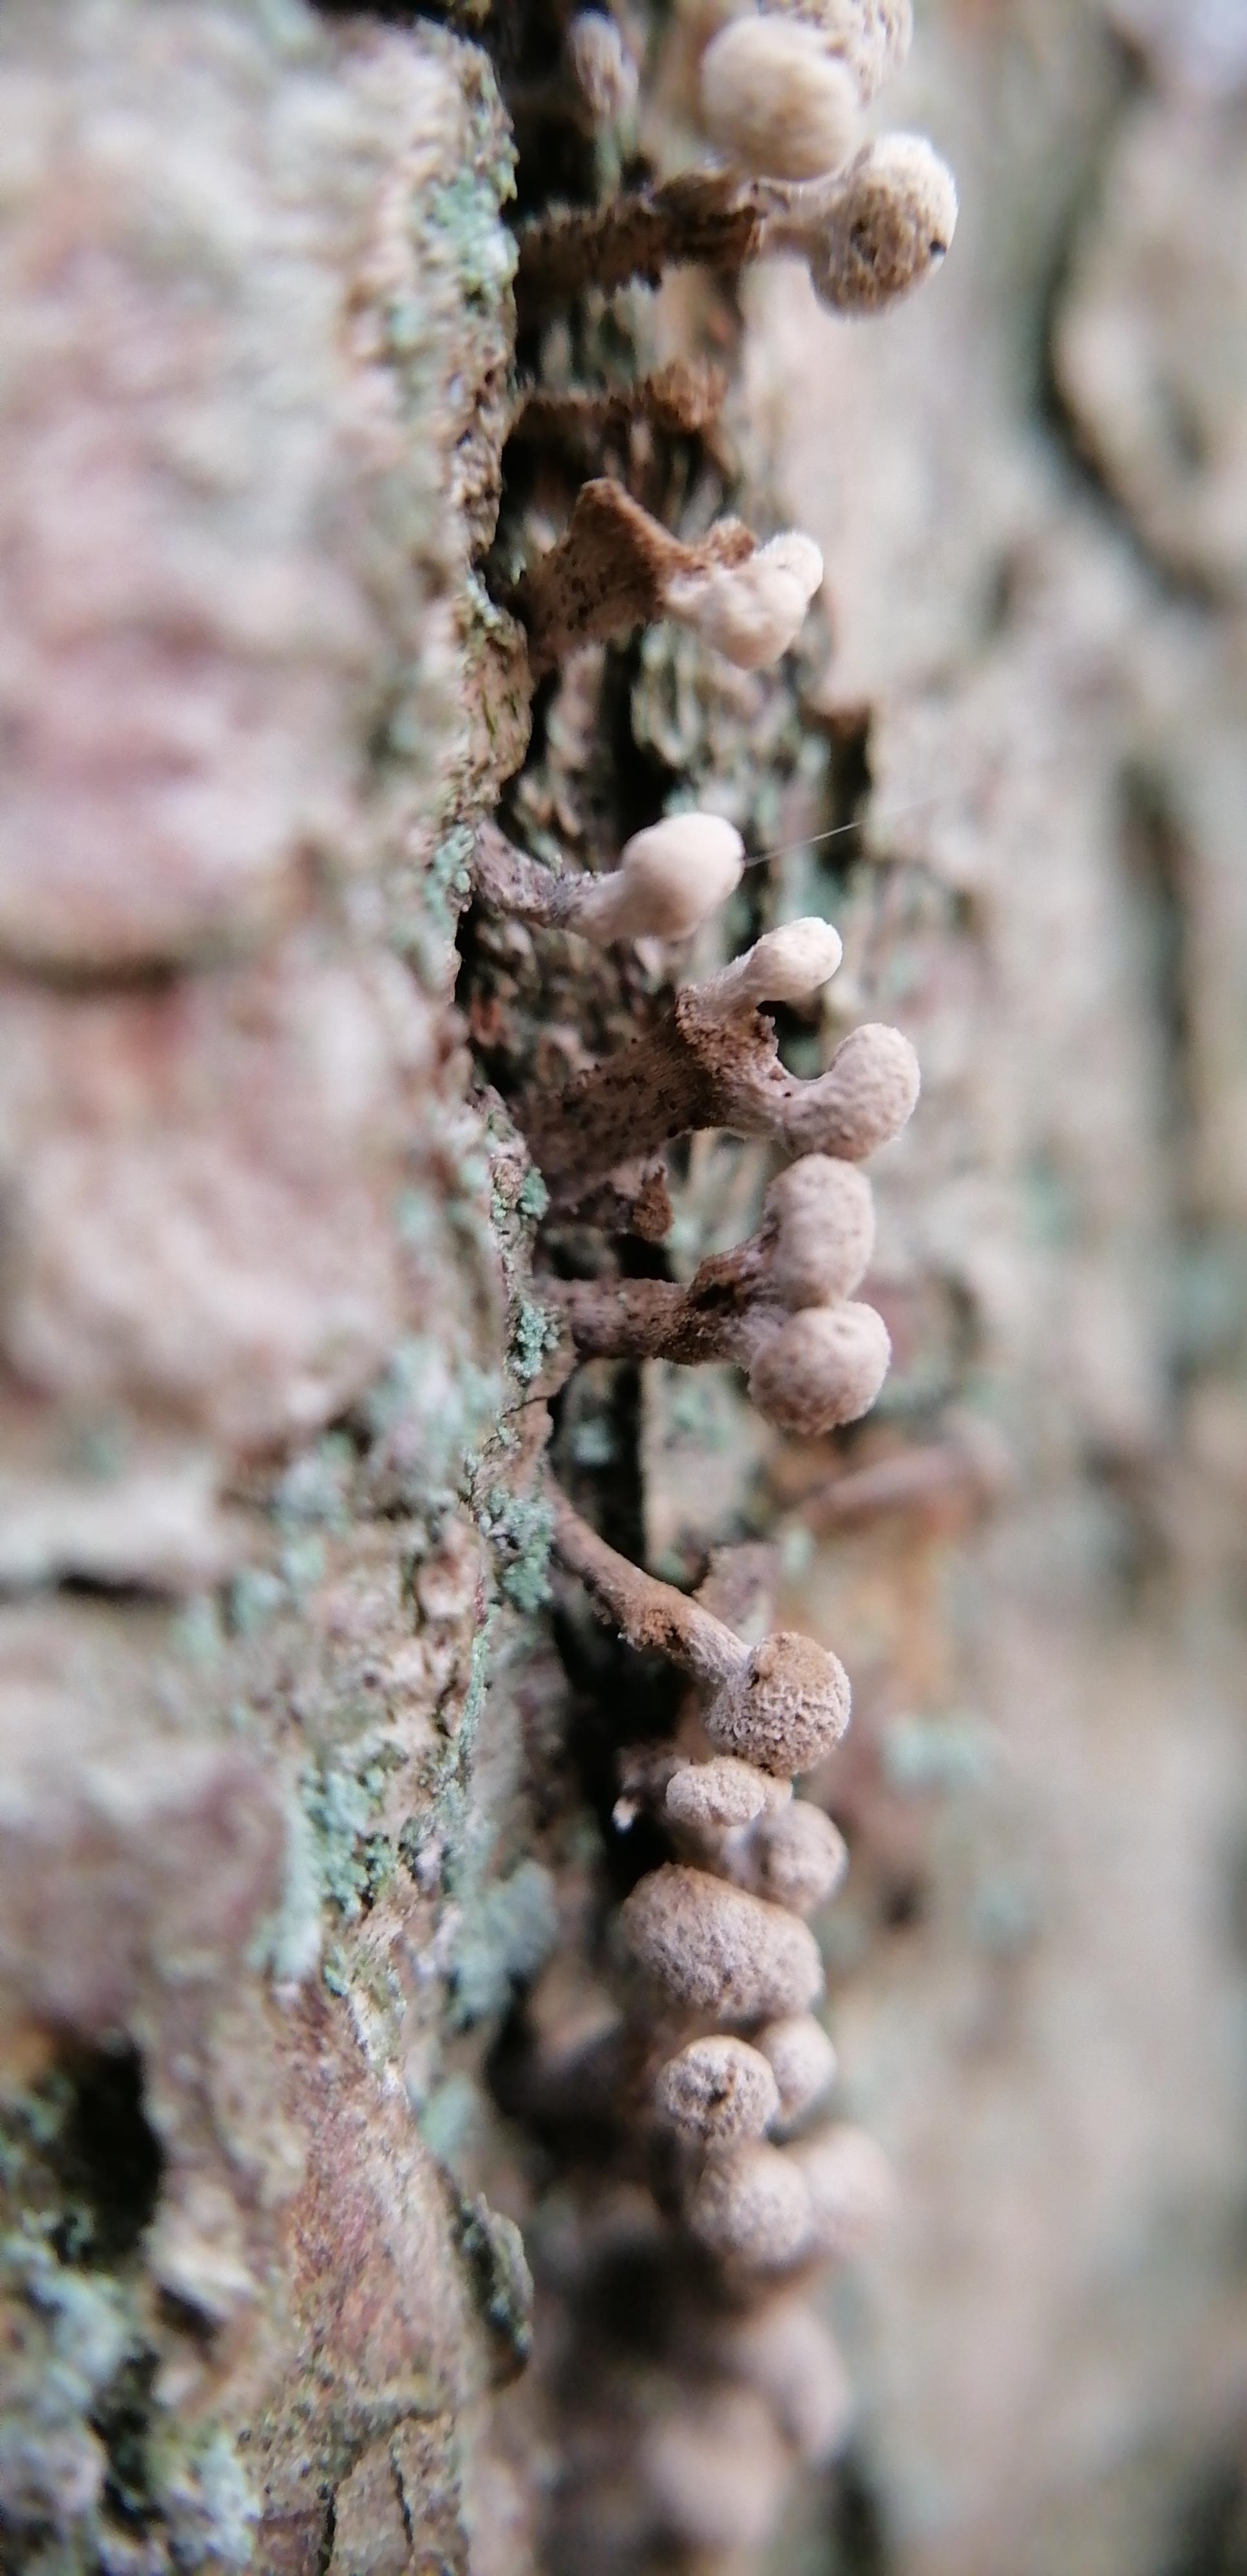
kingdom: Fungi
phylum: Basidiomycota
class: Atractiellomycetes
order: Atractiellales
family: Phleogenaceae
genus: Phleogena
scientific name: Phleogena faginea
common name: pudderkølle
